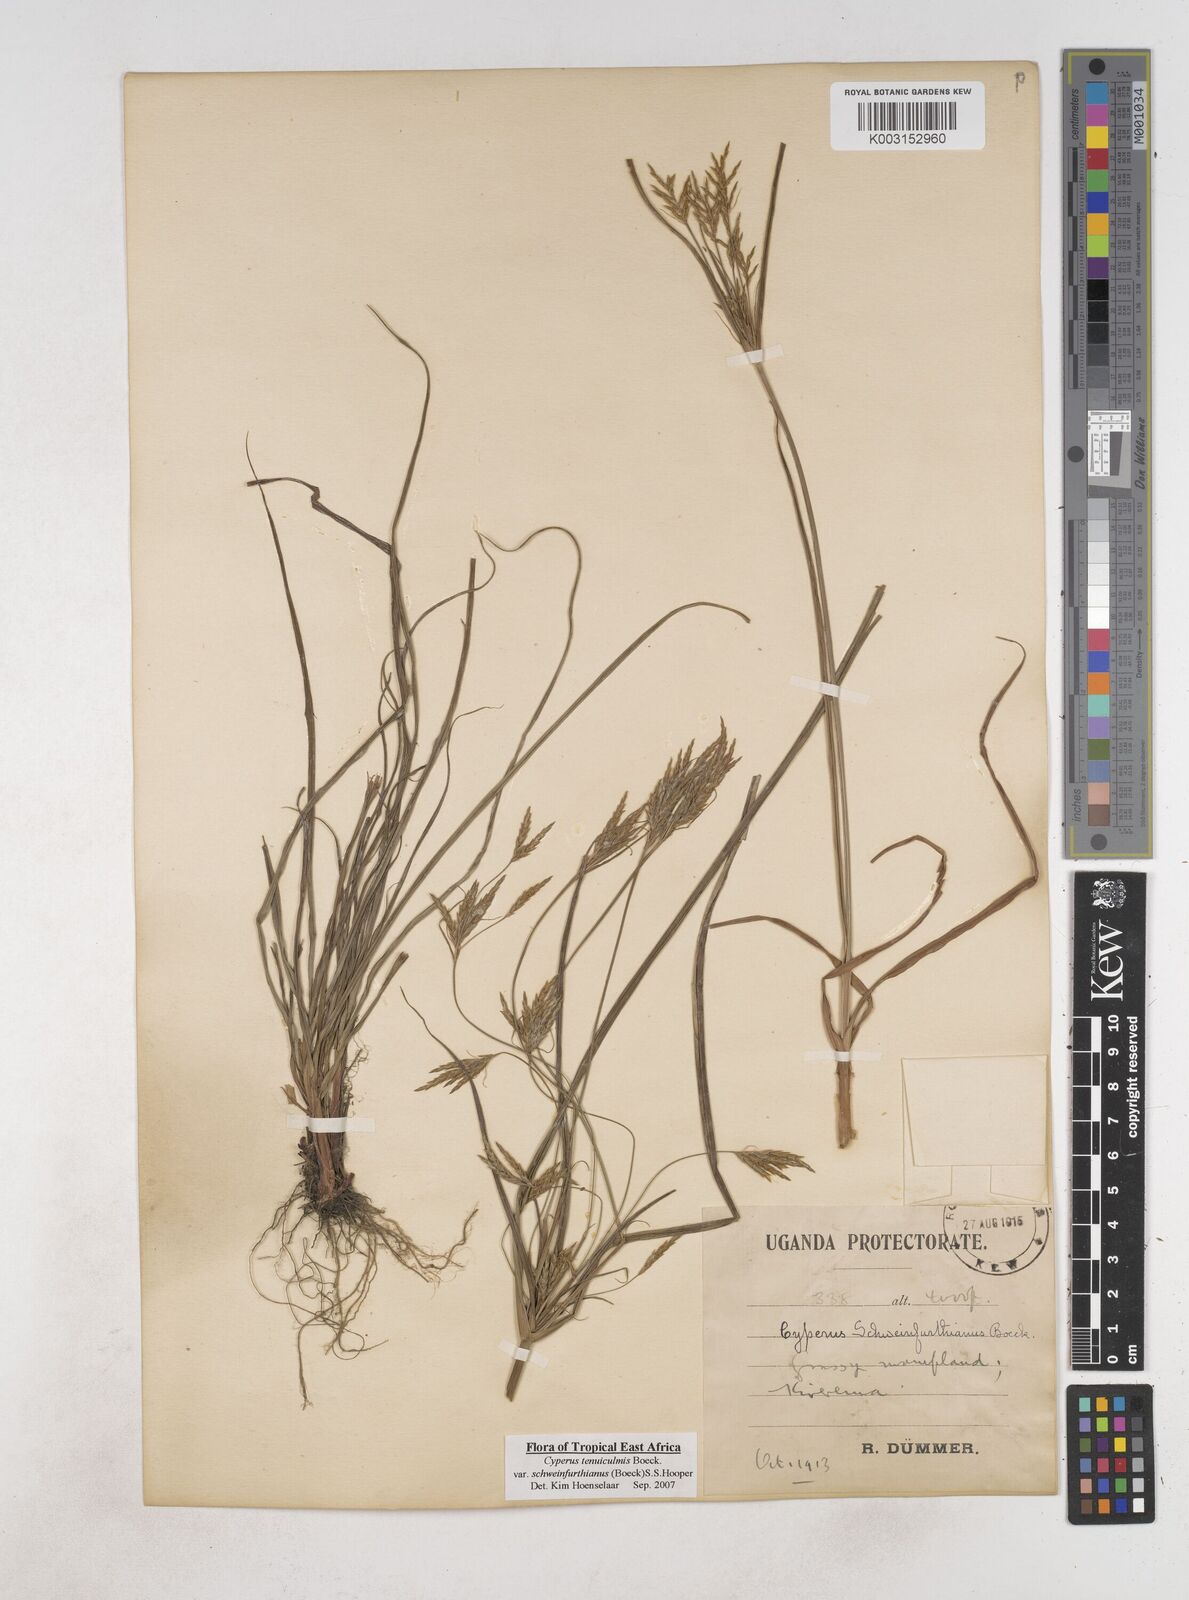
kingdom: Plantae
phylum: Tracheophyta
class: Liliopsida
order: Poales
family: Cyperaceae
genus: Cyperus
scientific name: Cyperus tenuiculmis
